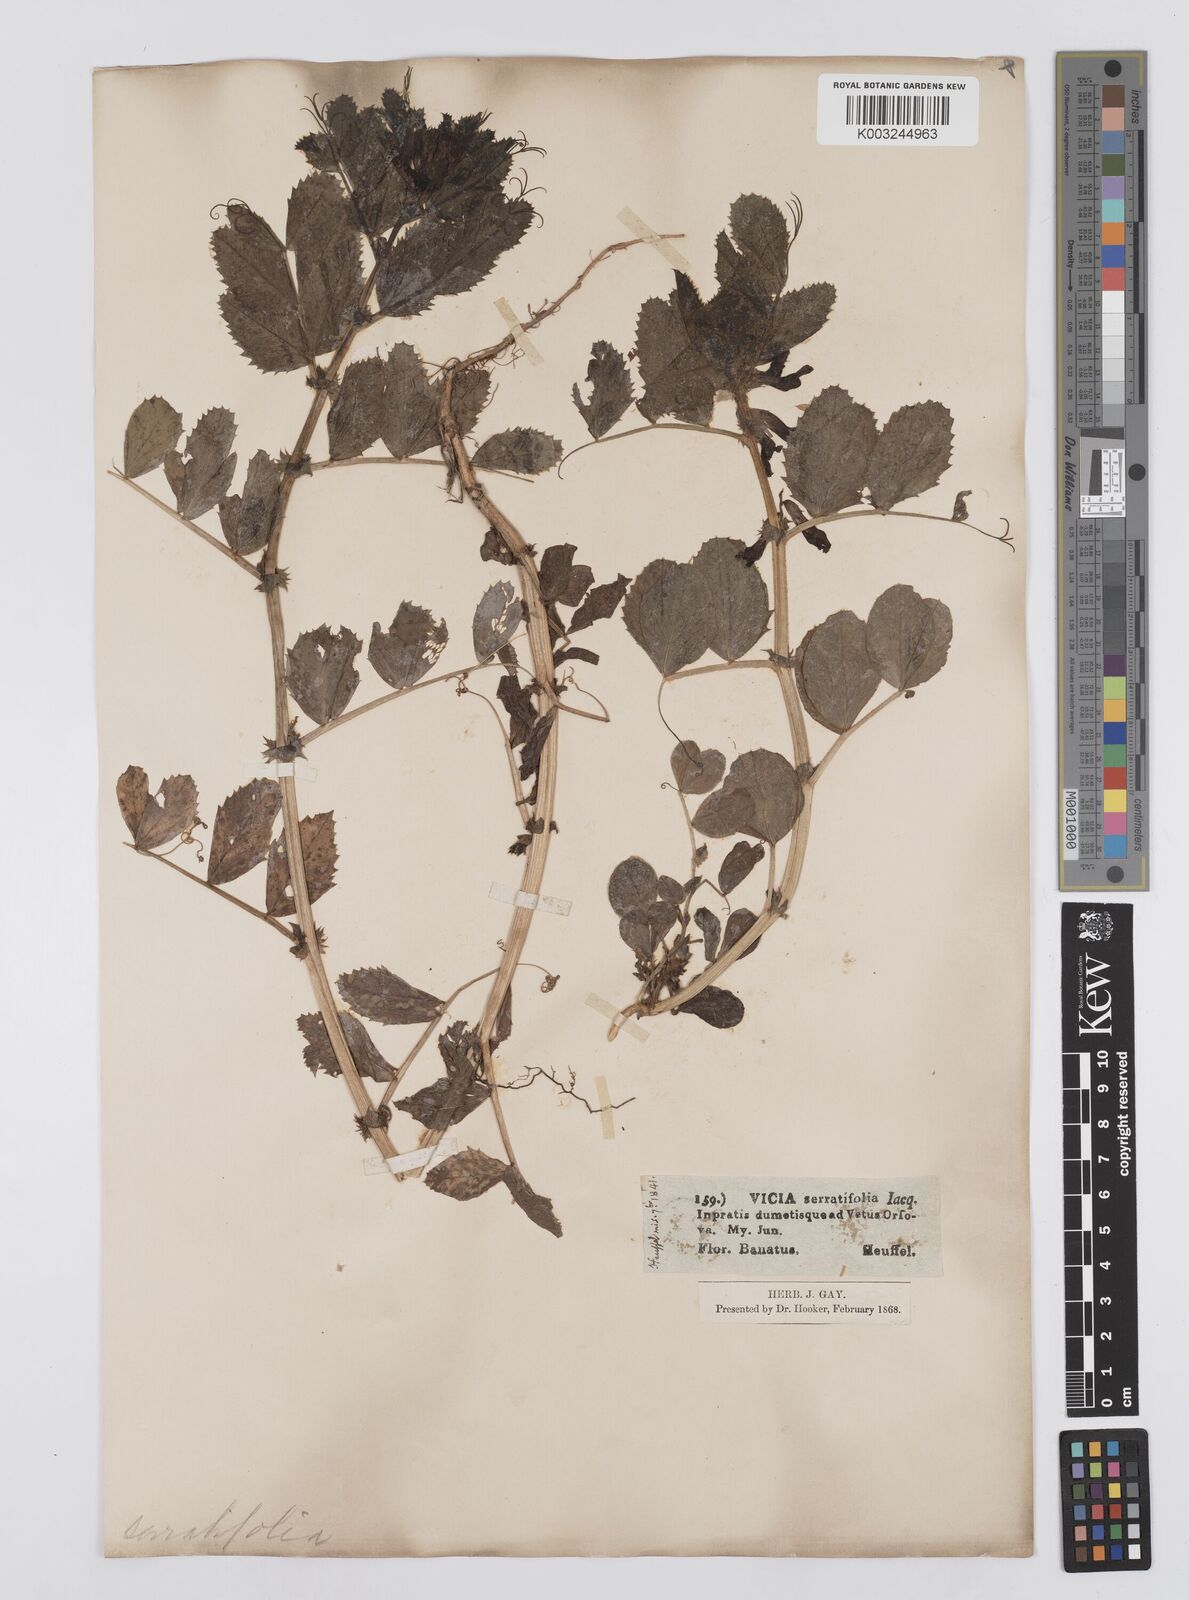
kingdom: Plantae
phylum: Tracheophyta
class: Magnoliopsida
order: Fabales
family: Fabaceae
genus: Vicia
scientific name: Vicia serratifolia
